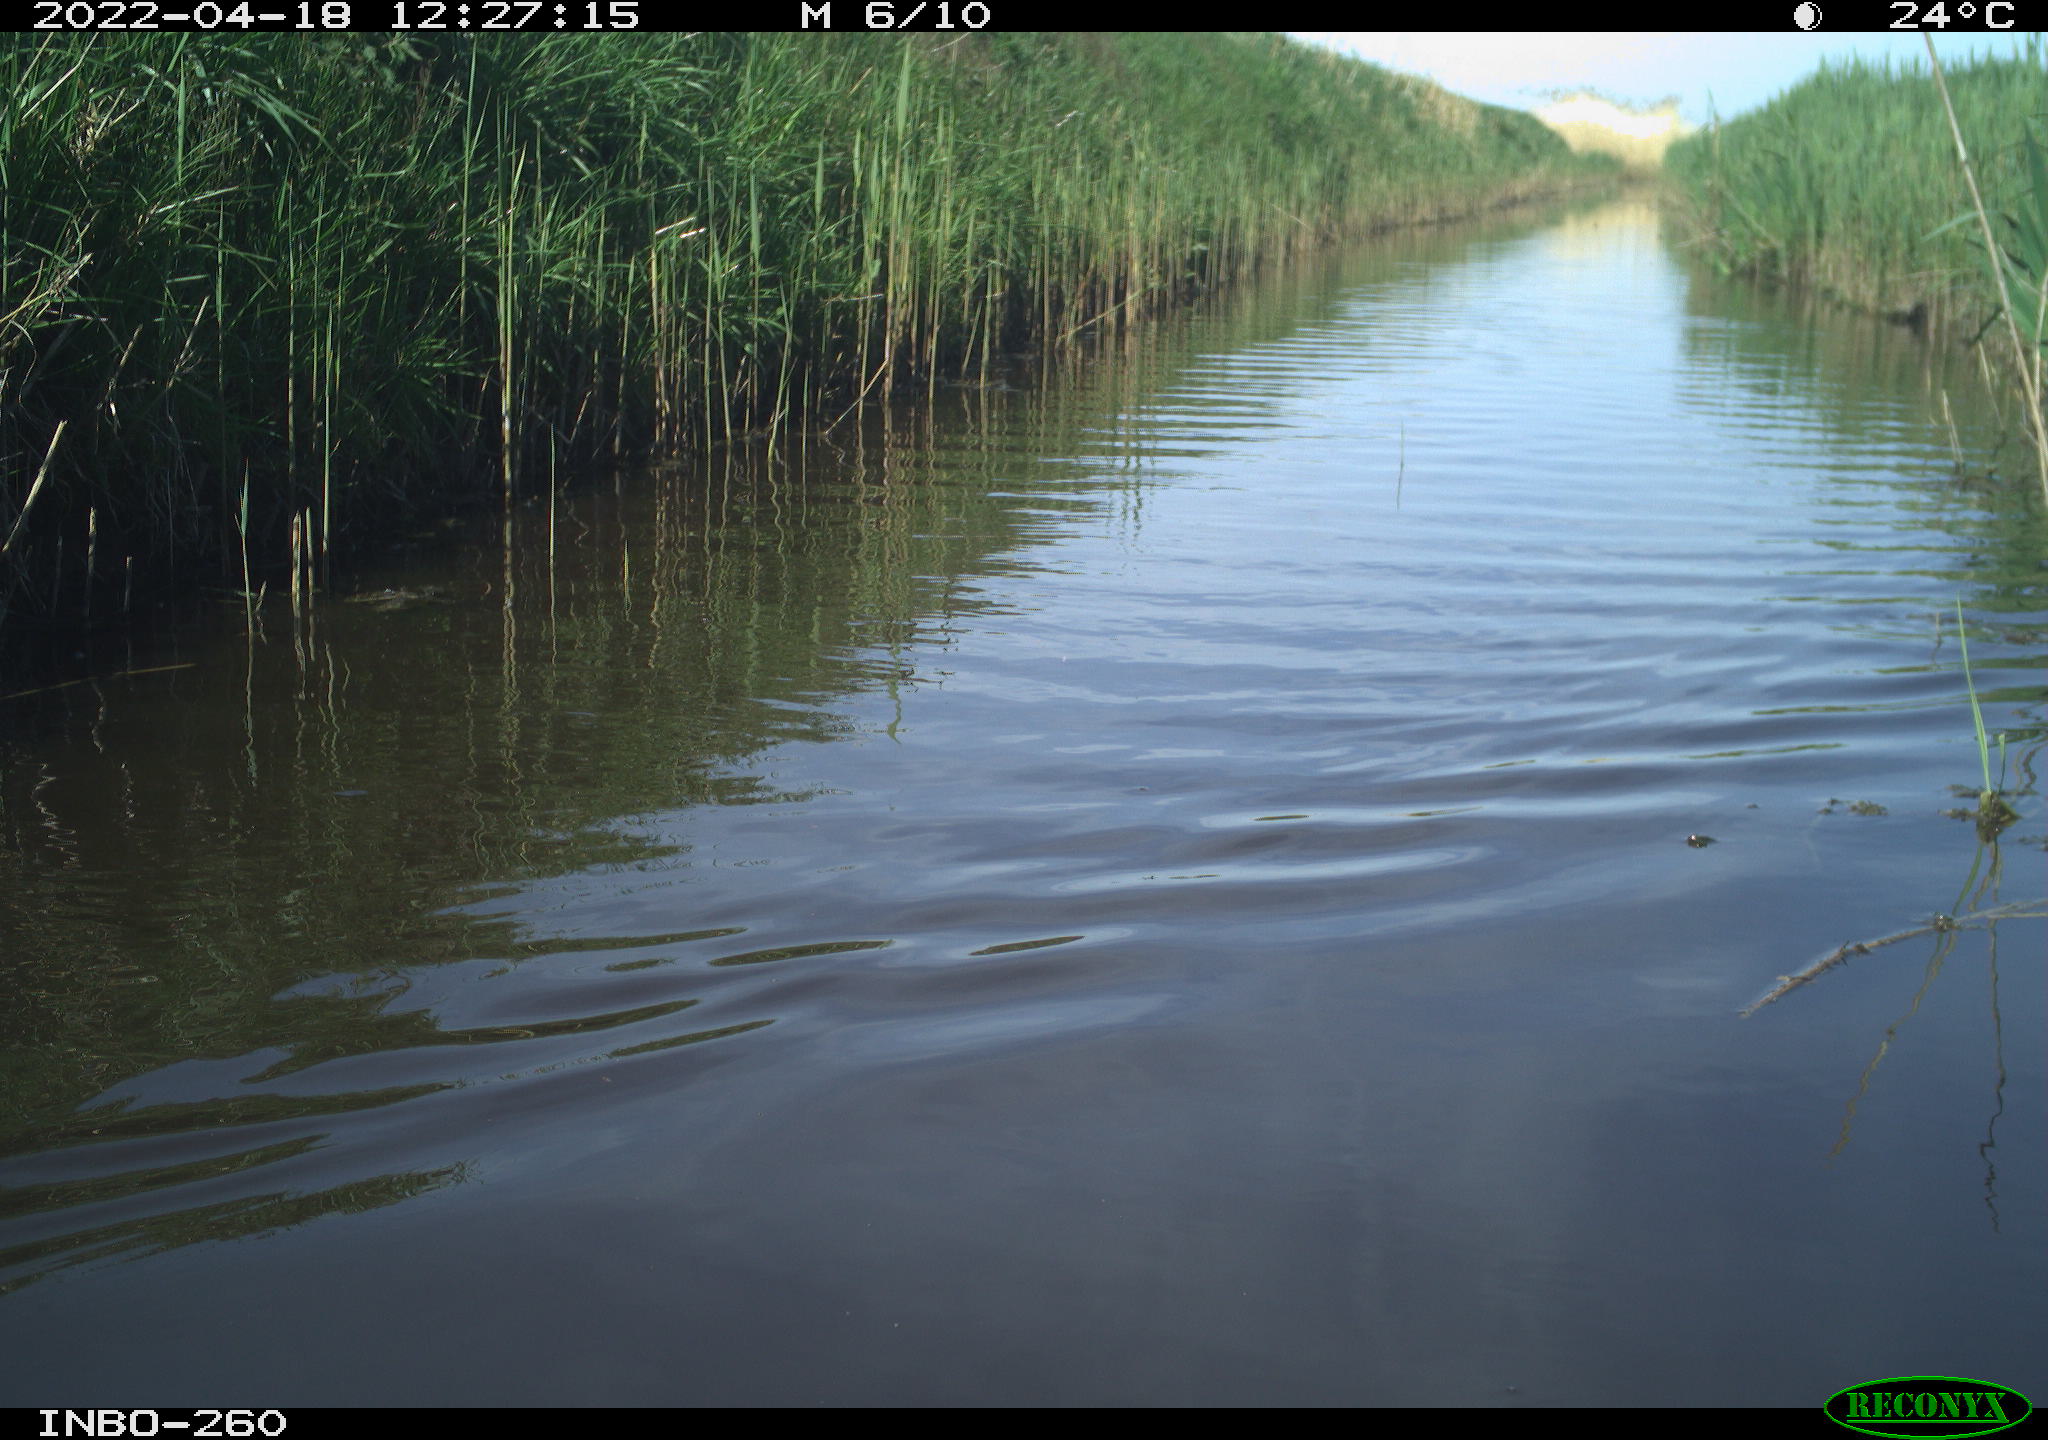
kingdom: Animalia
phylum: Chordata
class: Aves
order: Gruiformes
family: Rallidae
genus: Fulica
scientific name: Fulica atra
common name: Eurasian coot
